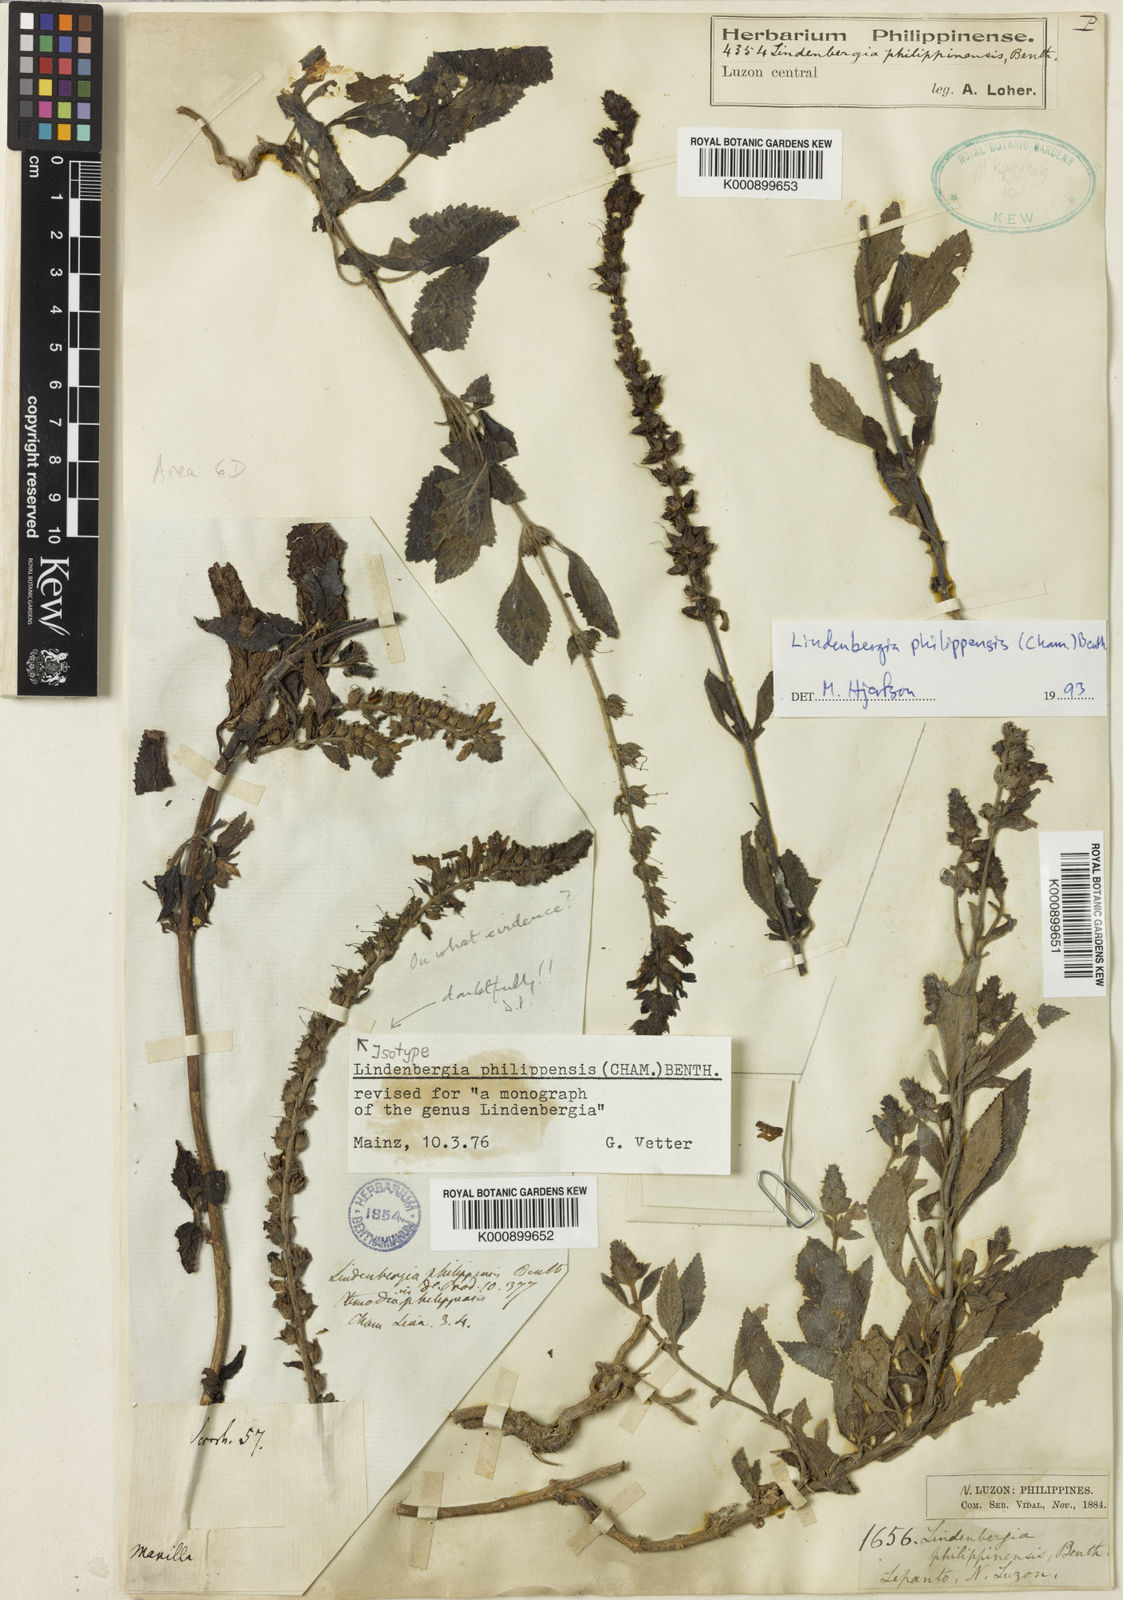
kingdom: Plantae
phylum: Tracheophyta
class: Magnoliopsida
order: Lamiales
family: Orobanchaceae
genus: Lindenbergia
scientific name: Lindenbergia philippensis
